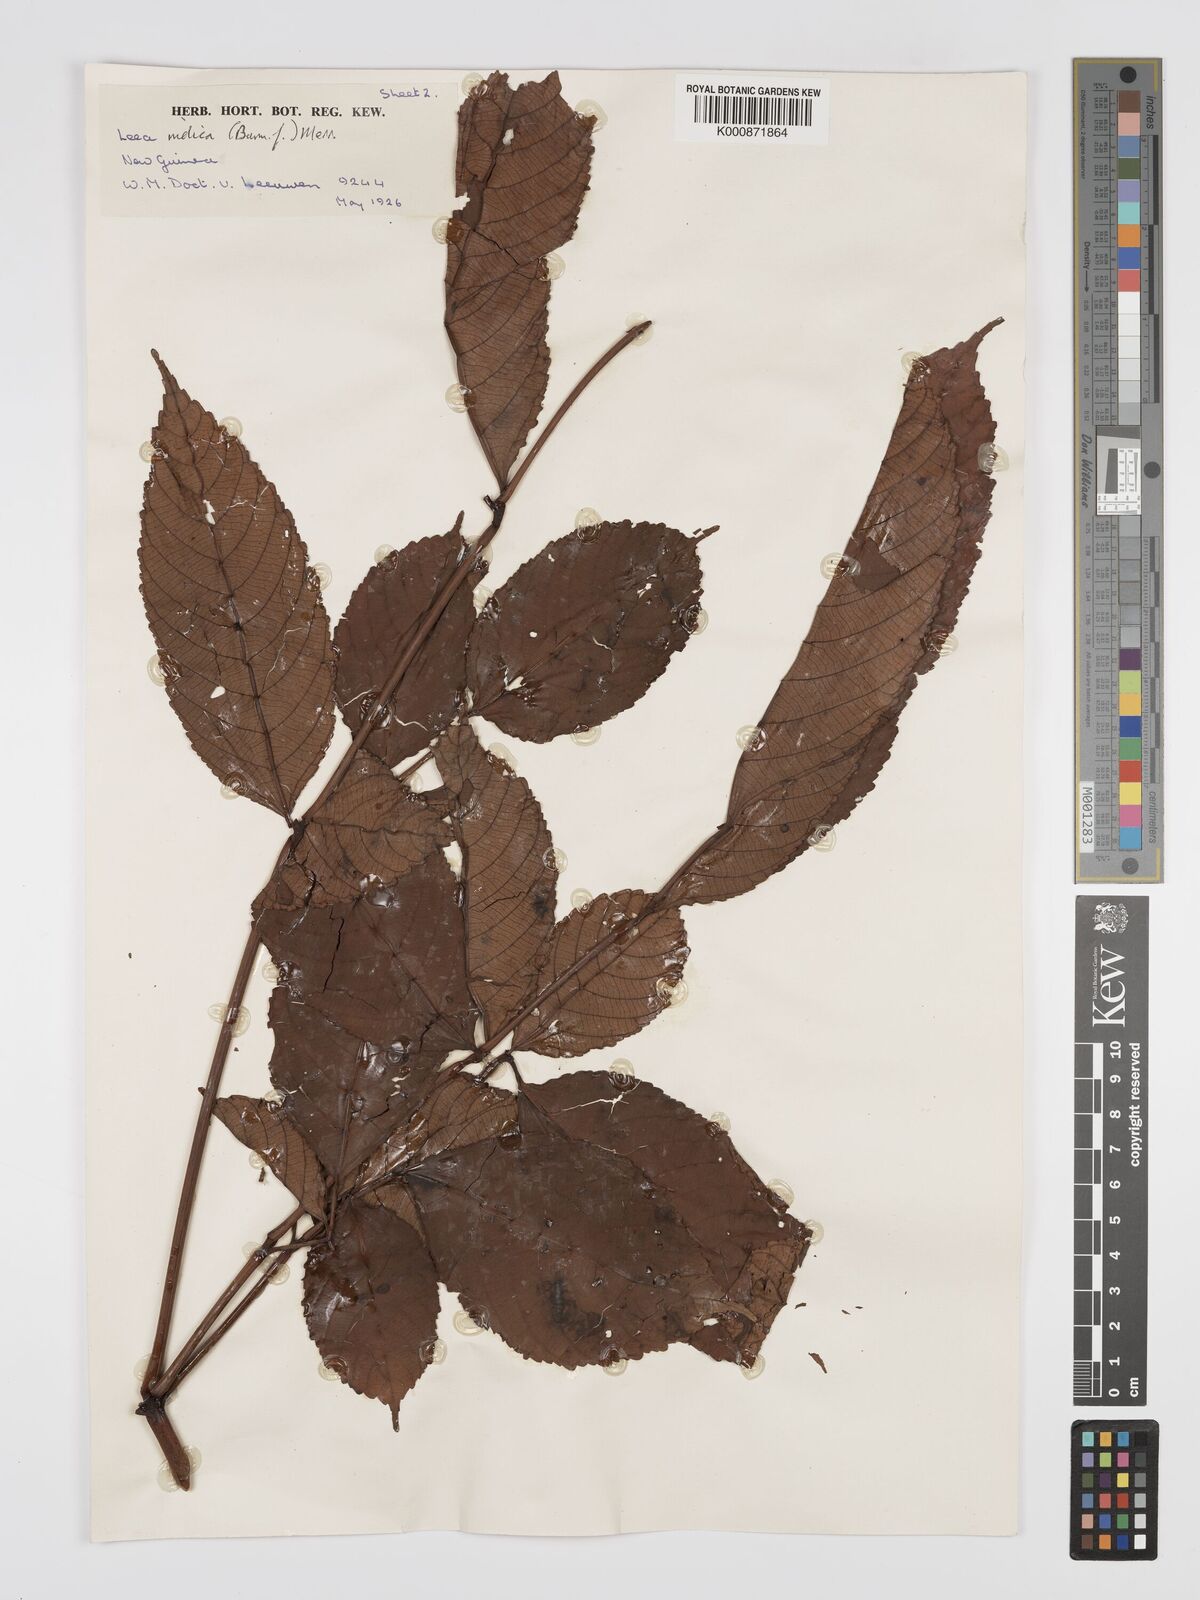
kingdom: Plantae
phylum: Tracheophyta
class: Magnoliopsida
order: Vitales
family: Vitaceae
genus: Leea
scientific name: Leea indica
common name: Bandicoot-berry
